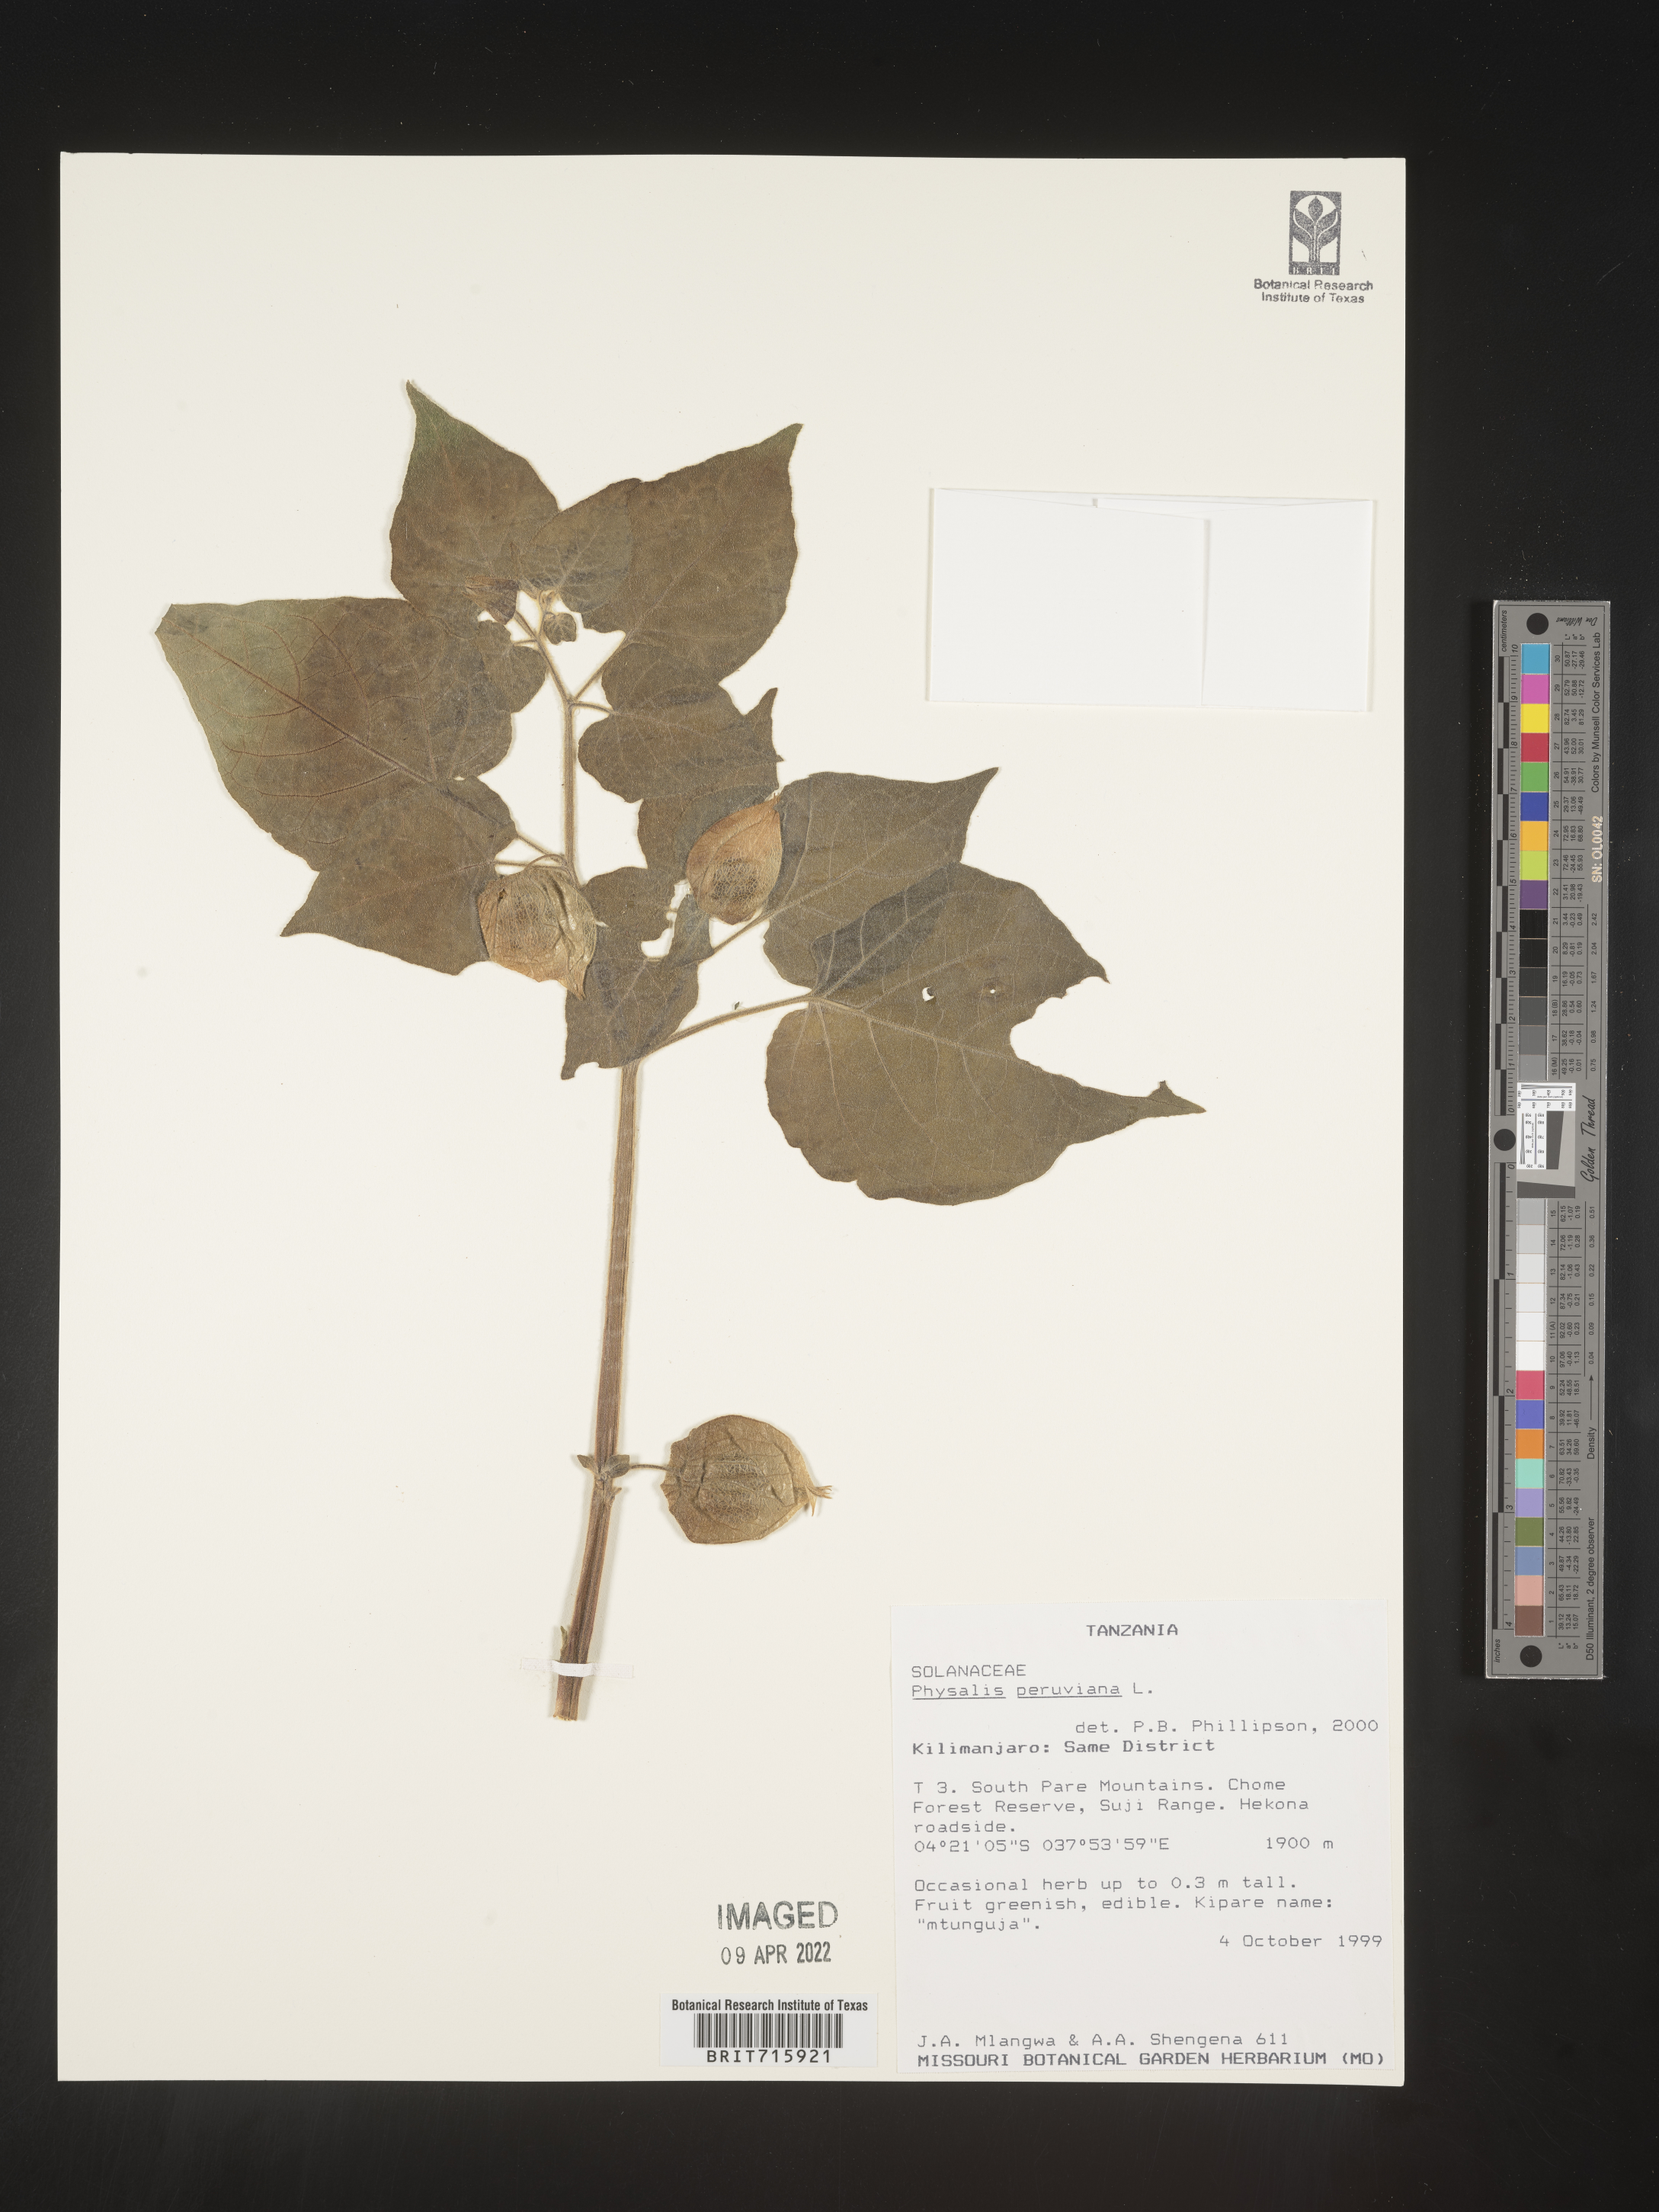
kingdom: Plantae
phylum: Tracheophyta
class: Magnoliopsida
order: Solanales
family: Solanaceae
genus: Physalis
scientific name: Physalis
